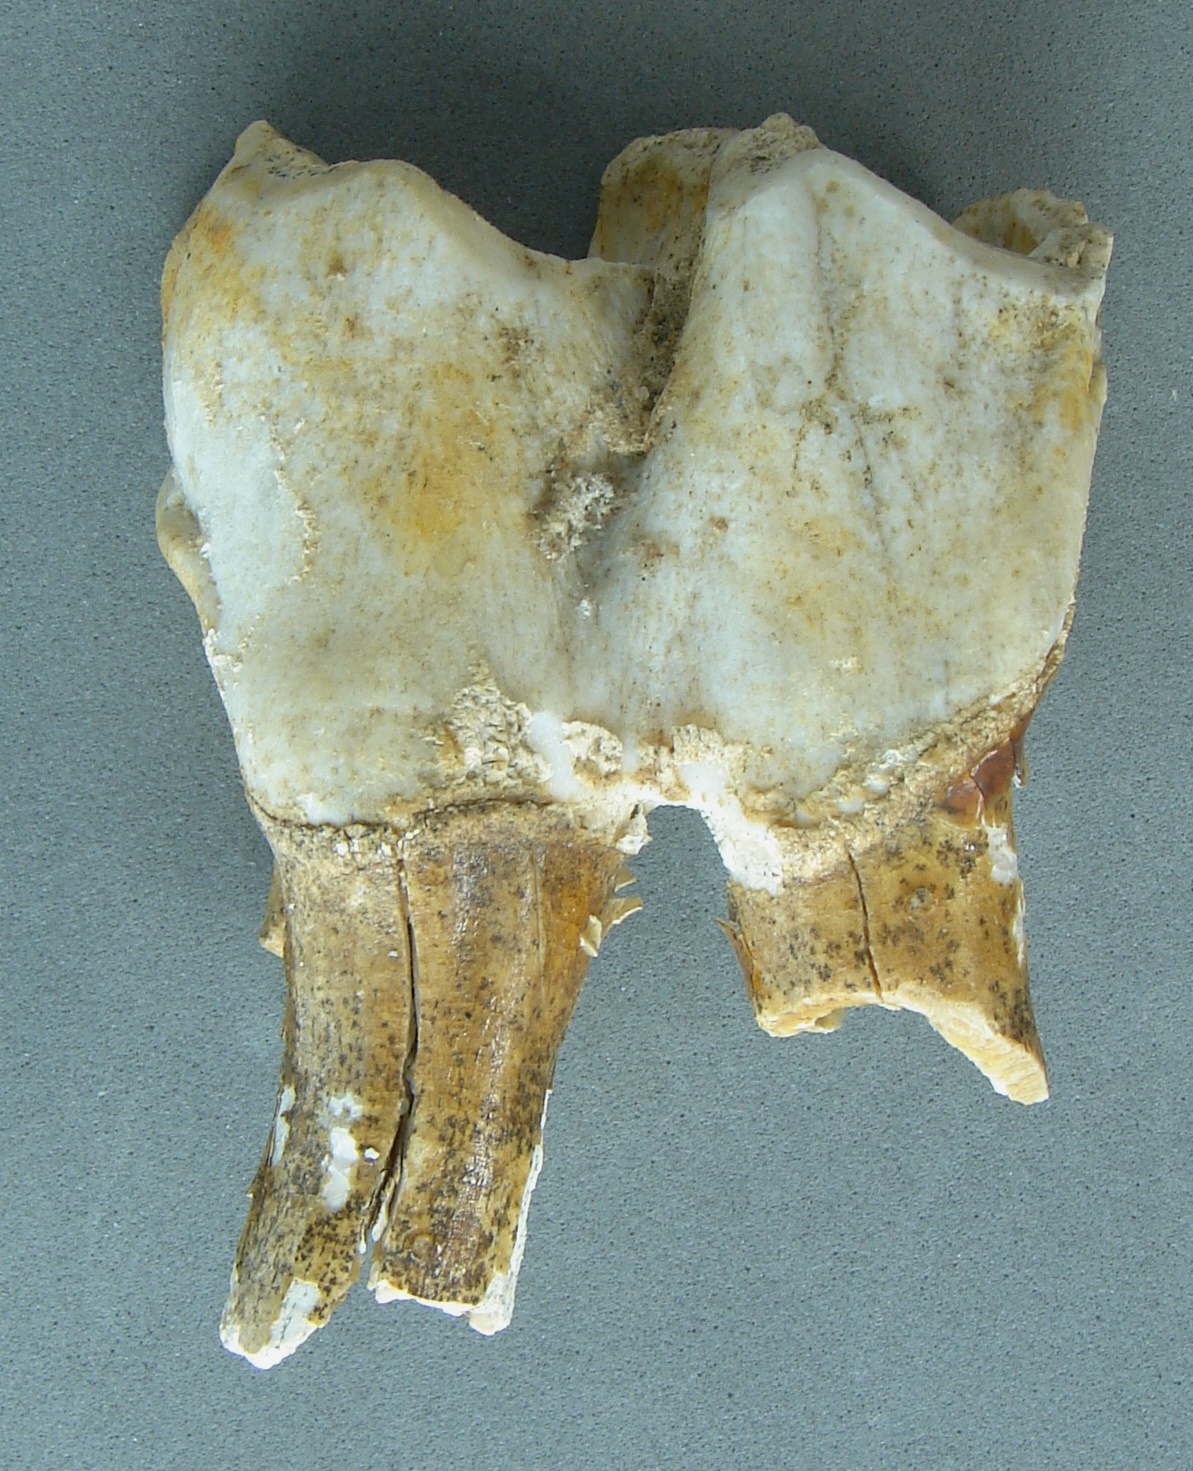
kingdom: Animalia
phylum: Chordata
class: Mammalia
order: Perissodactyla
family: Rhinocerotidae
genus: Rhinoceros
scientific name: Rhinoceros
